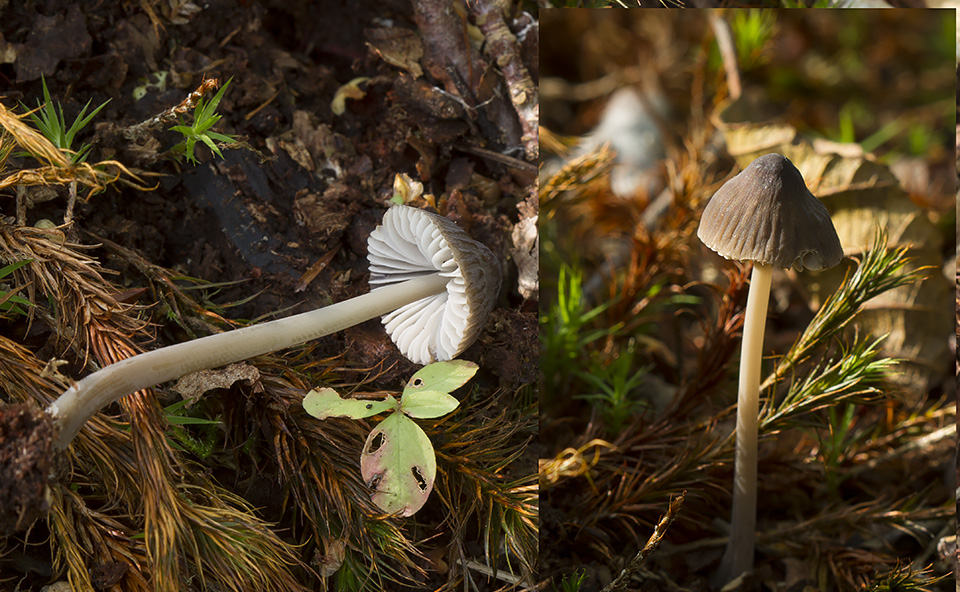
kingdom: Fungi
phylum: Basidiomycota
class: Agaricomycetes
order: Agaricales
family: Mycenaceae
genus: Mycena
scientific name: Mycena megaspora
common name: brusk-huesvamp
